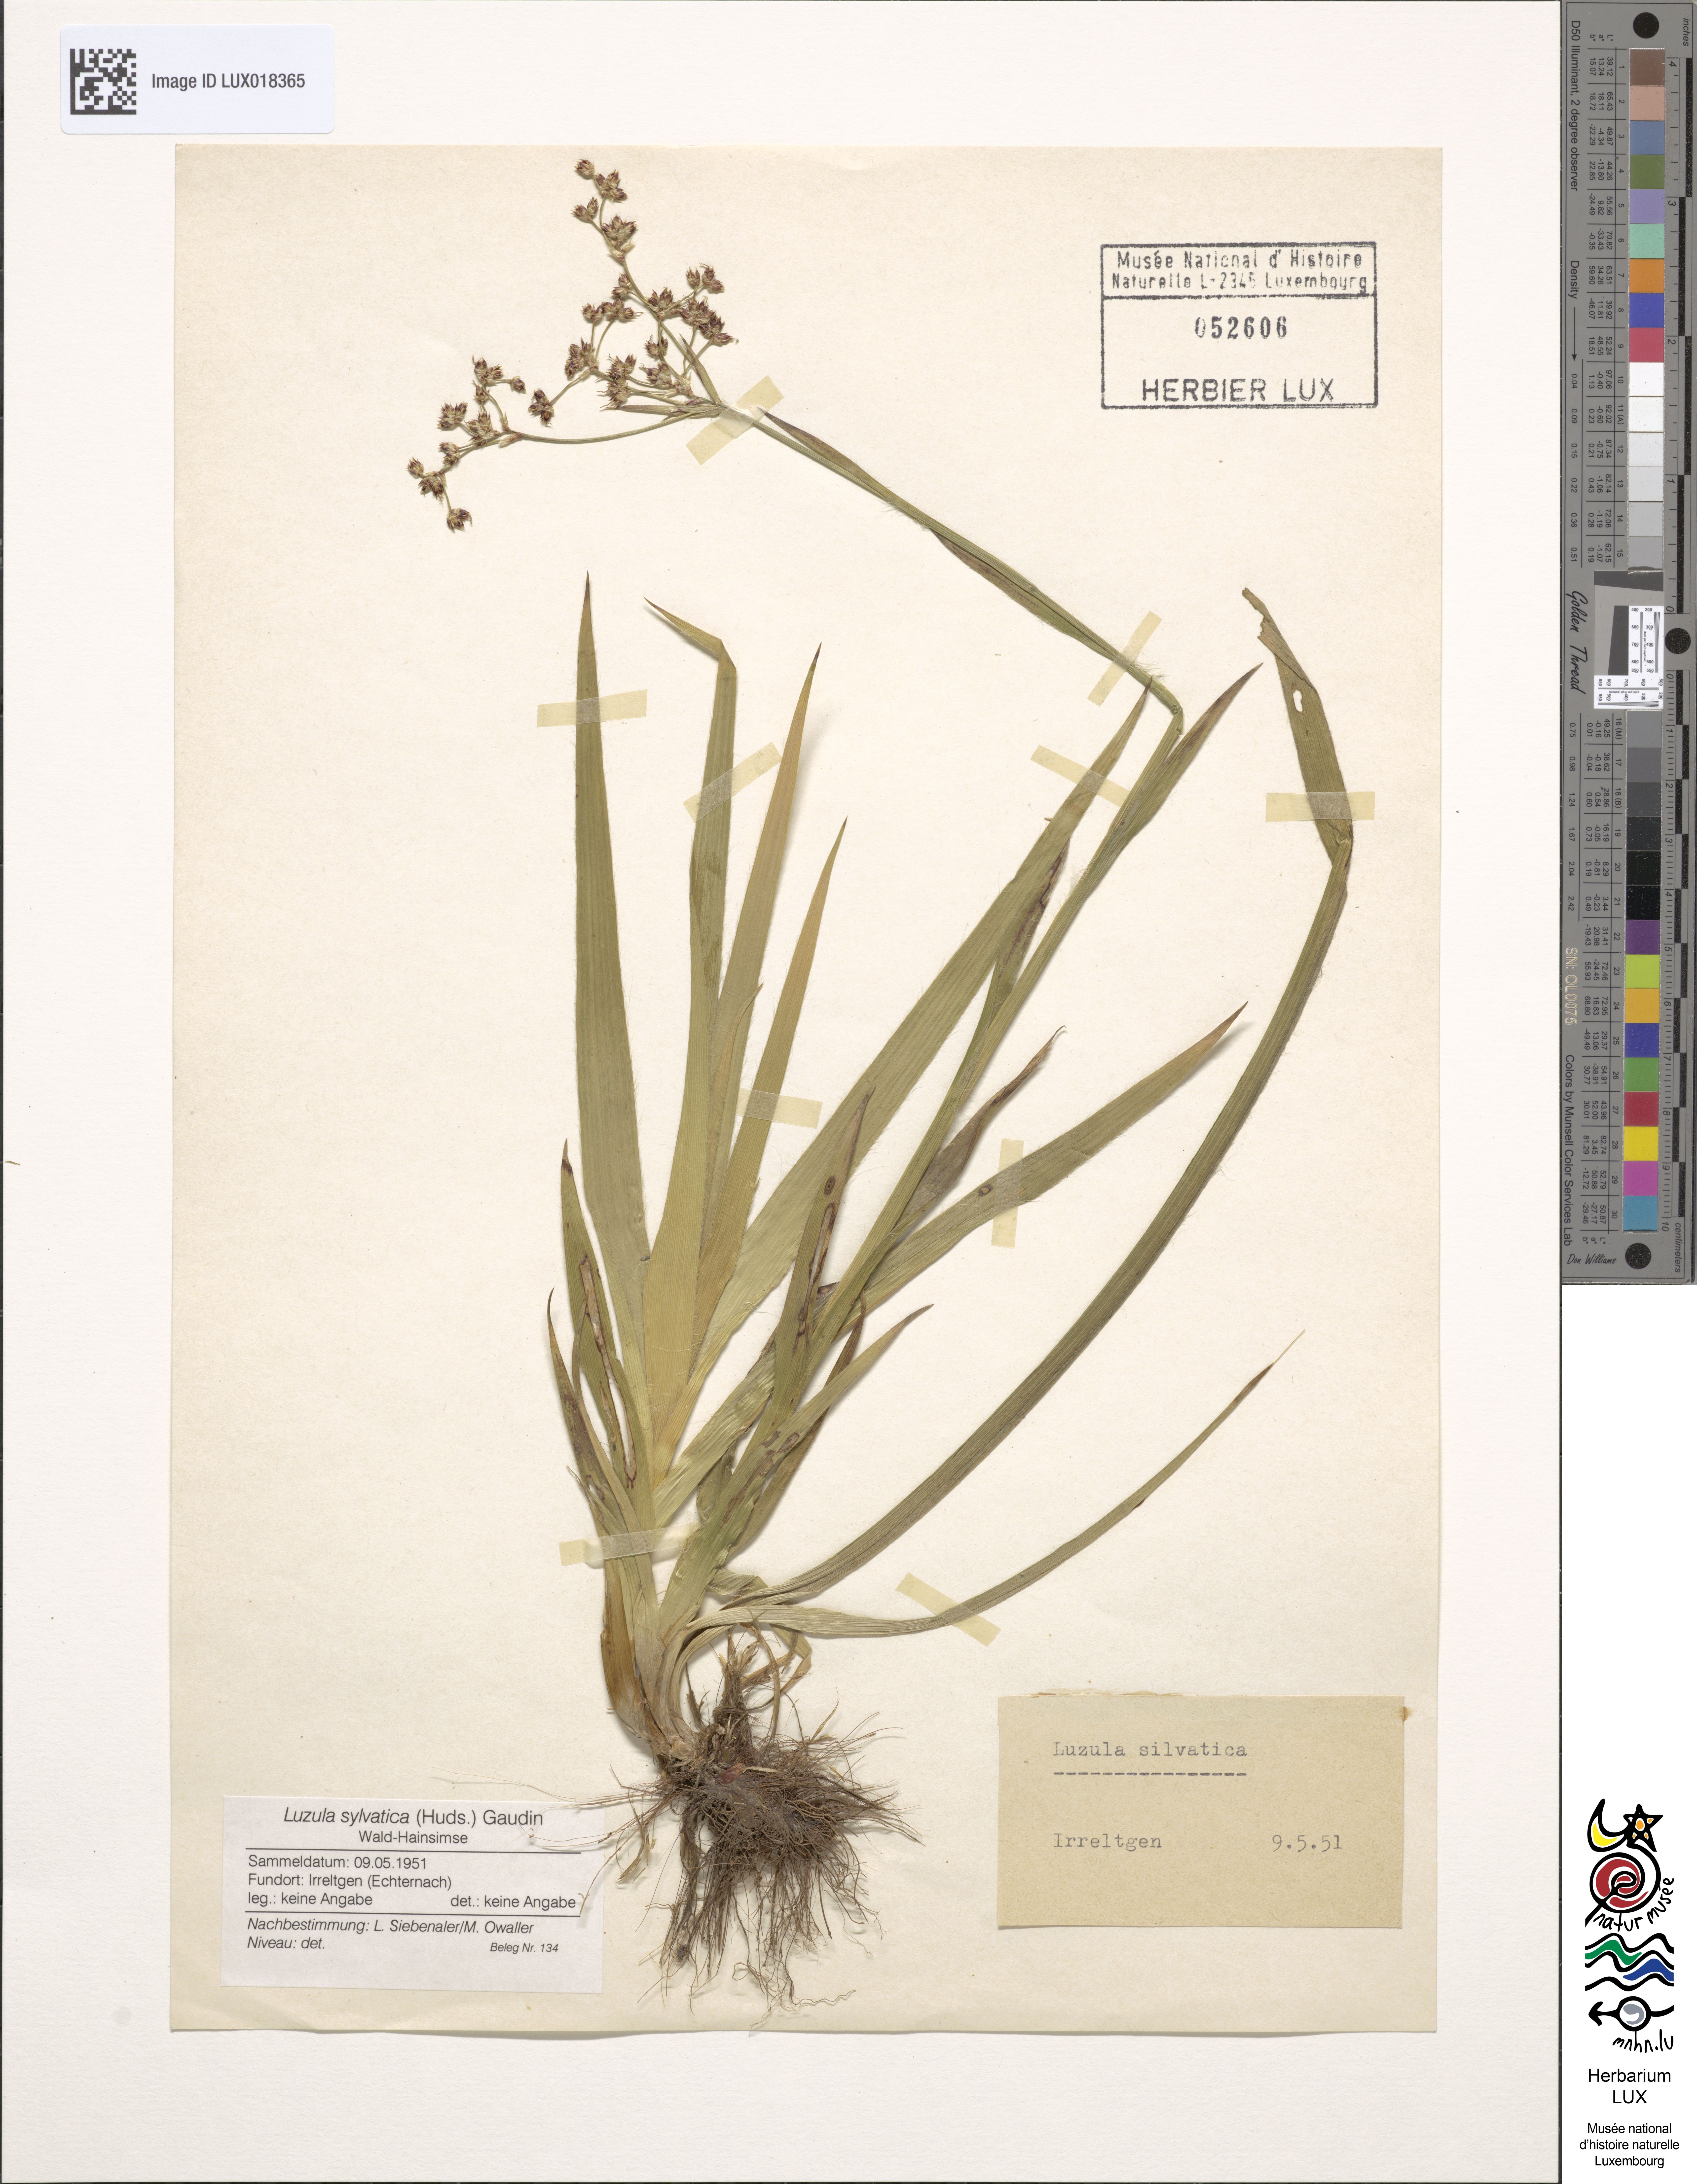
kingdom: Plantae
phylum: Tracheophyta
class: Liliopsida
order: Poales
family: Juncaceae
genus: Luzula
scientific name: Luzula sylvatica
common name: Great wood-rush
